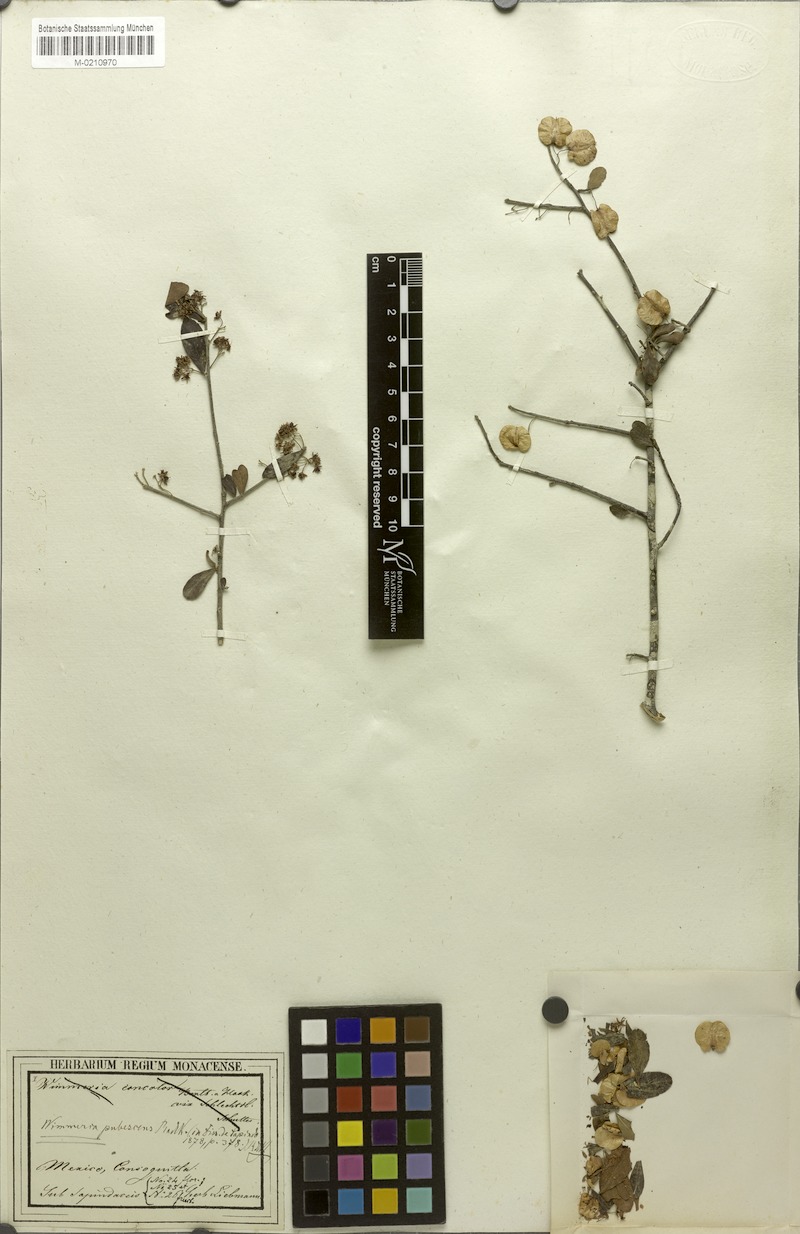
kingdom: Plantae
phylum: Tracheophyta
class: Magnoliopsida
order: Celastrales
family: Celastraceae
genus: Wimmeria
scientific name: Wimmeria pubescens
